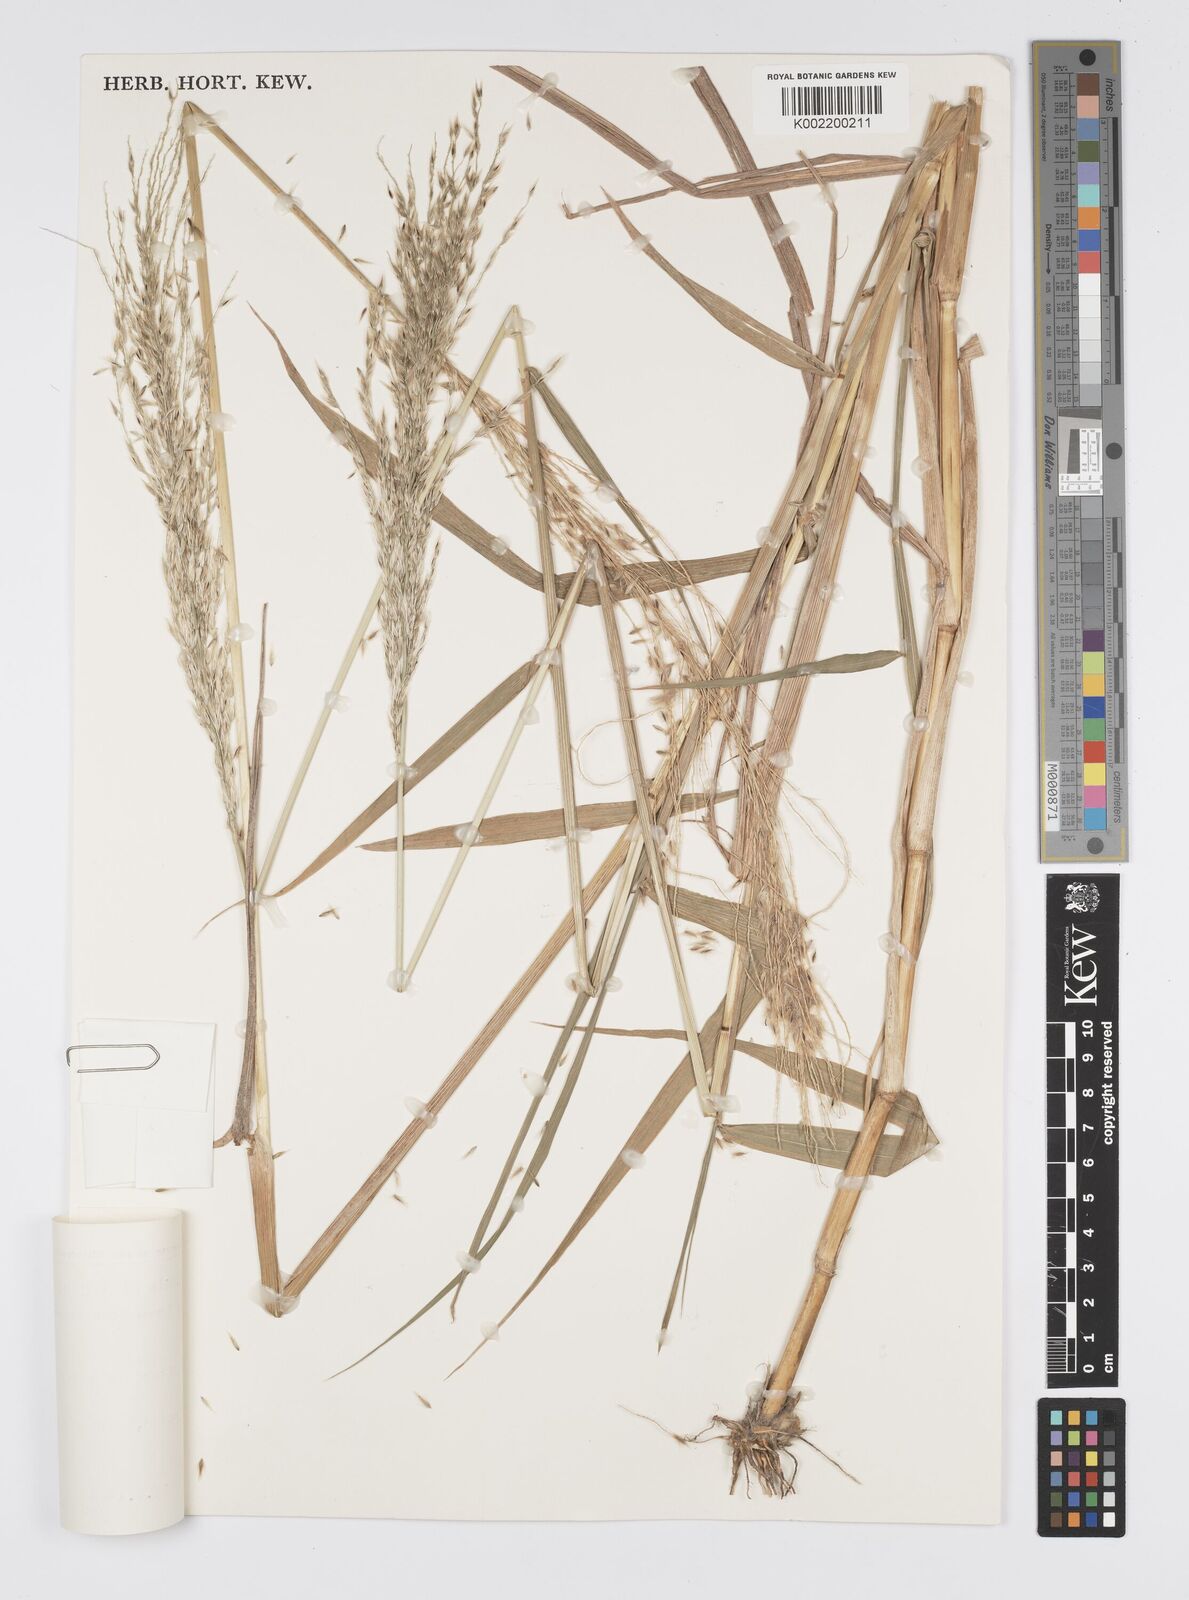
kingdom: Plantae
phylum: Tracheophyta
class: Liliopsida
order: Poales
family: Poaceae
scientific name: Poaceae
